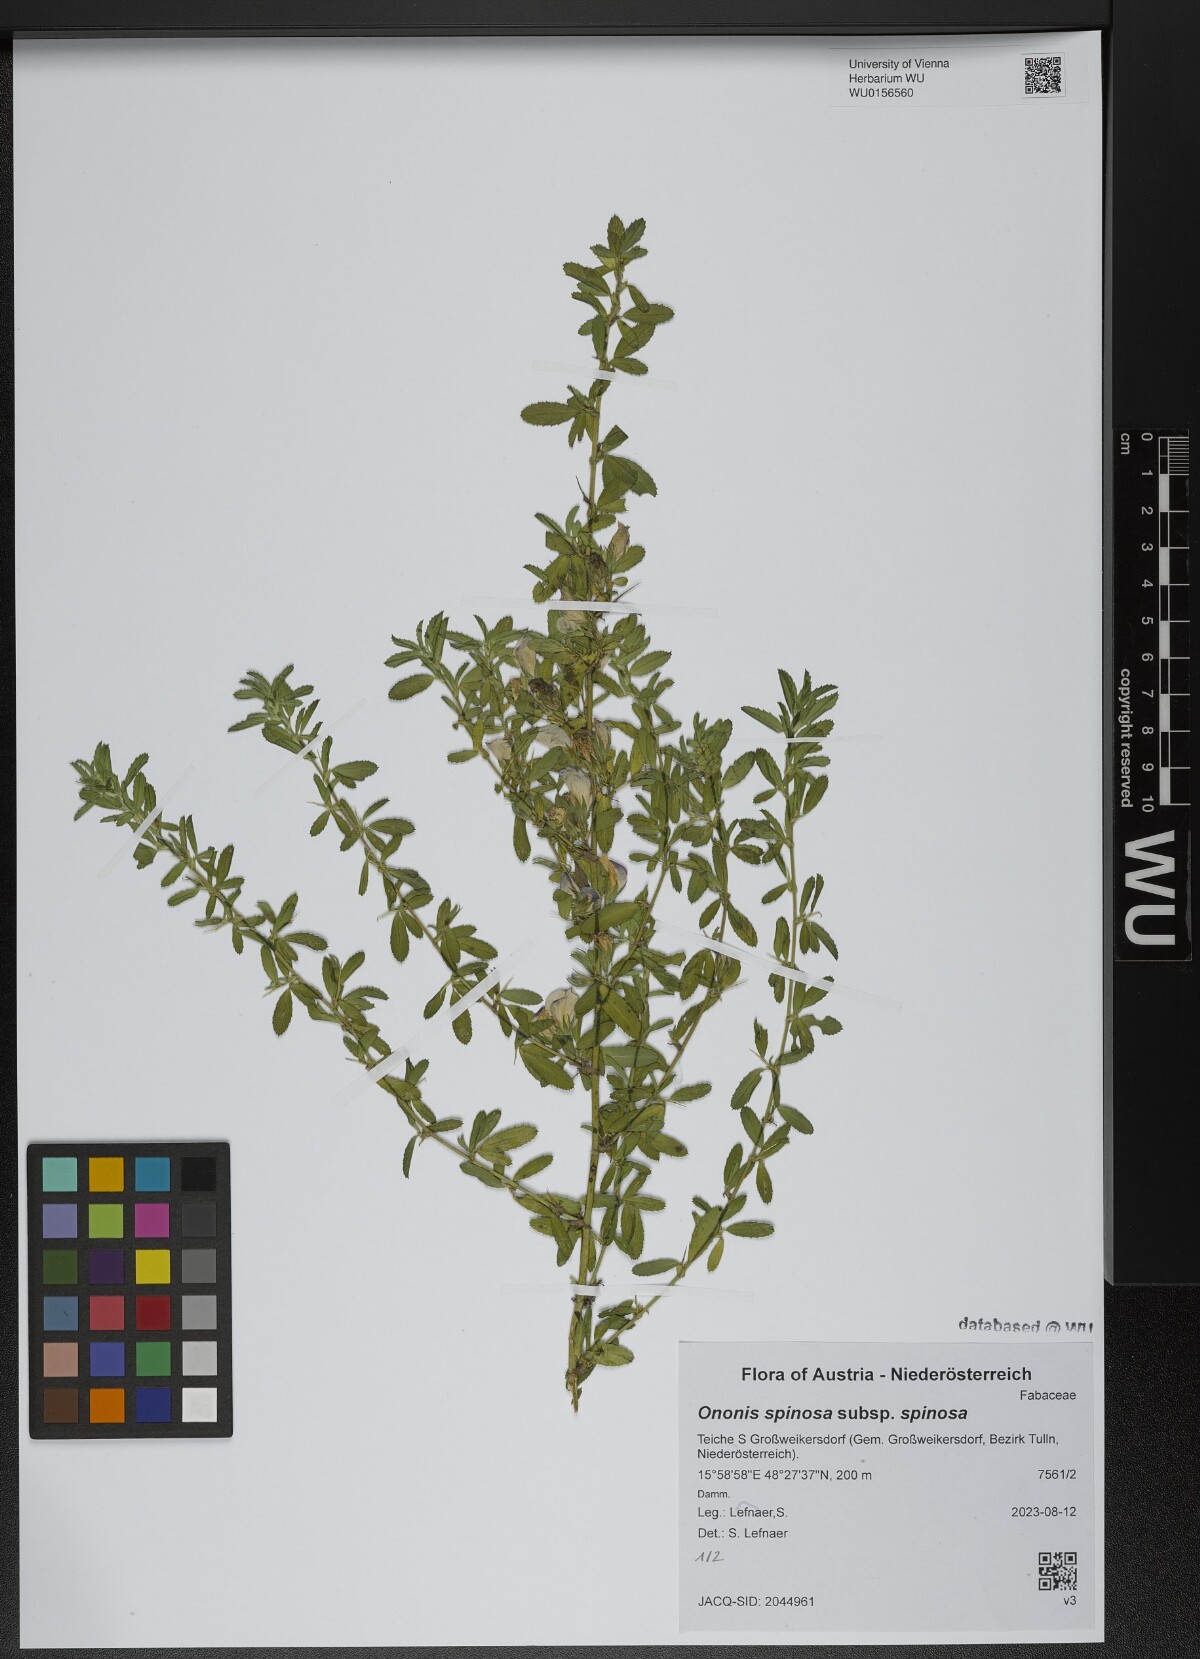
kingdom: Plantae
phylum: Tracheophyta
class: Magnoliopsida
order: Fabales
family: Fabaceae
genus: Ononis
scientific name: Ononis spinosa
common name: Spiny restharrow
